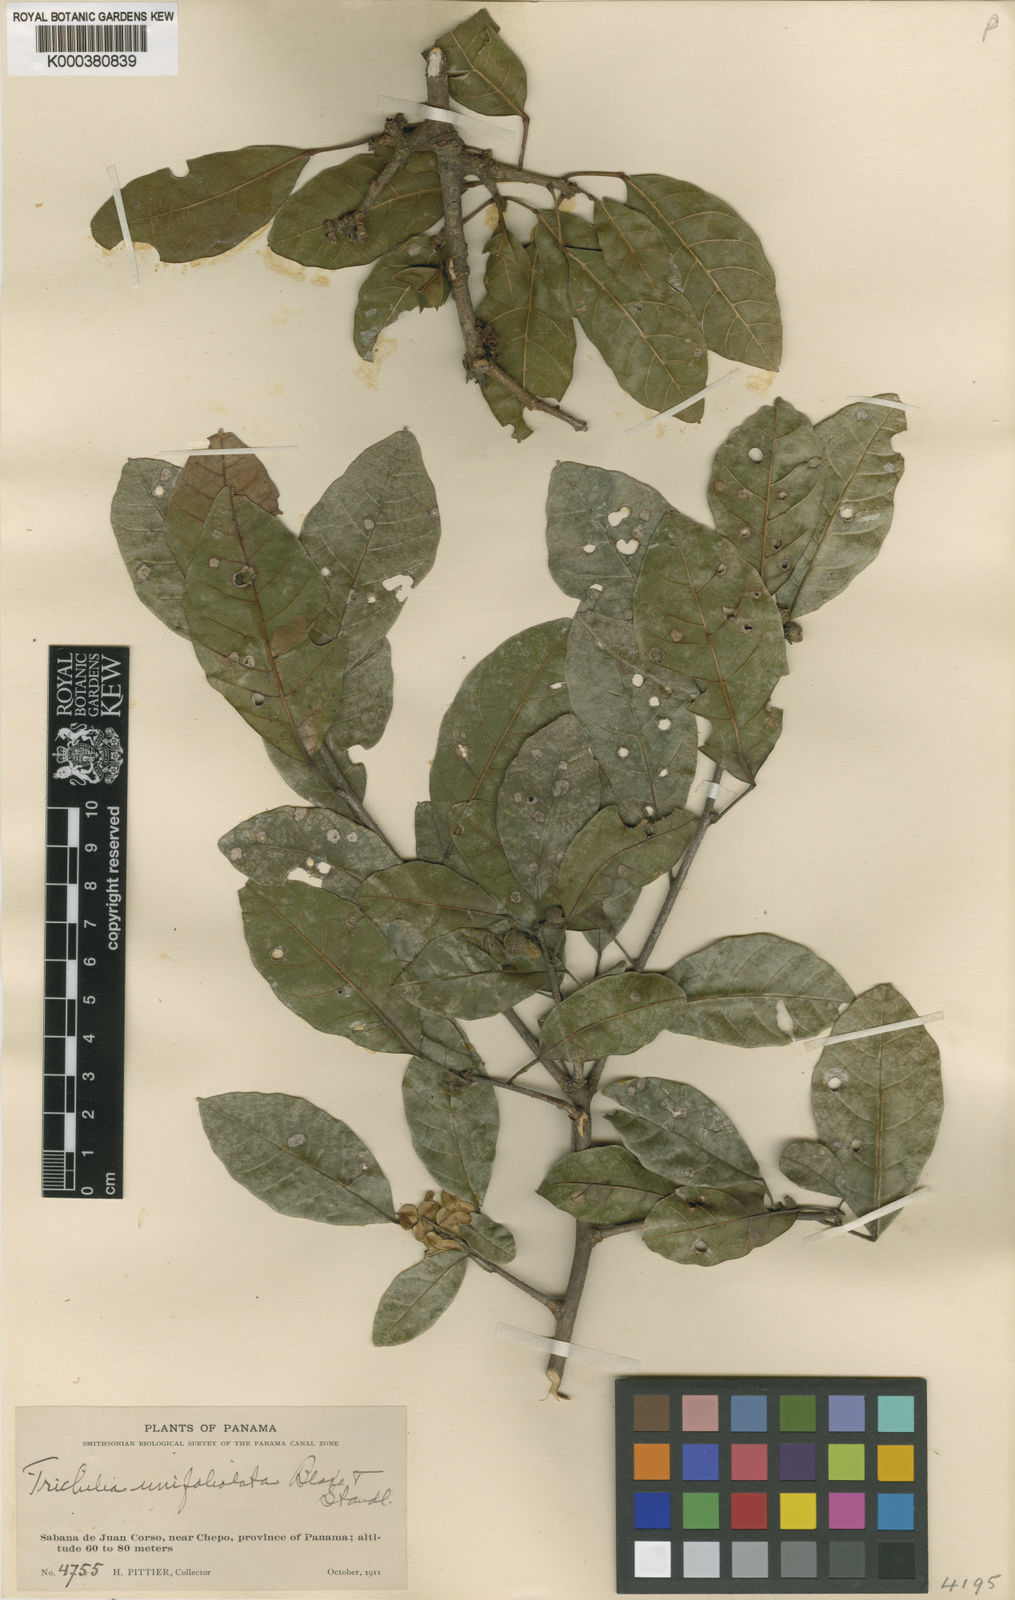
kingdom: Plantae
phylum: Tracheophyta
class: Magnoliopsida
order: Sapindales
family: Meliaceae
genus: Trichilia
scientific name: Trichilia trifolia
